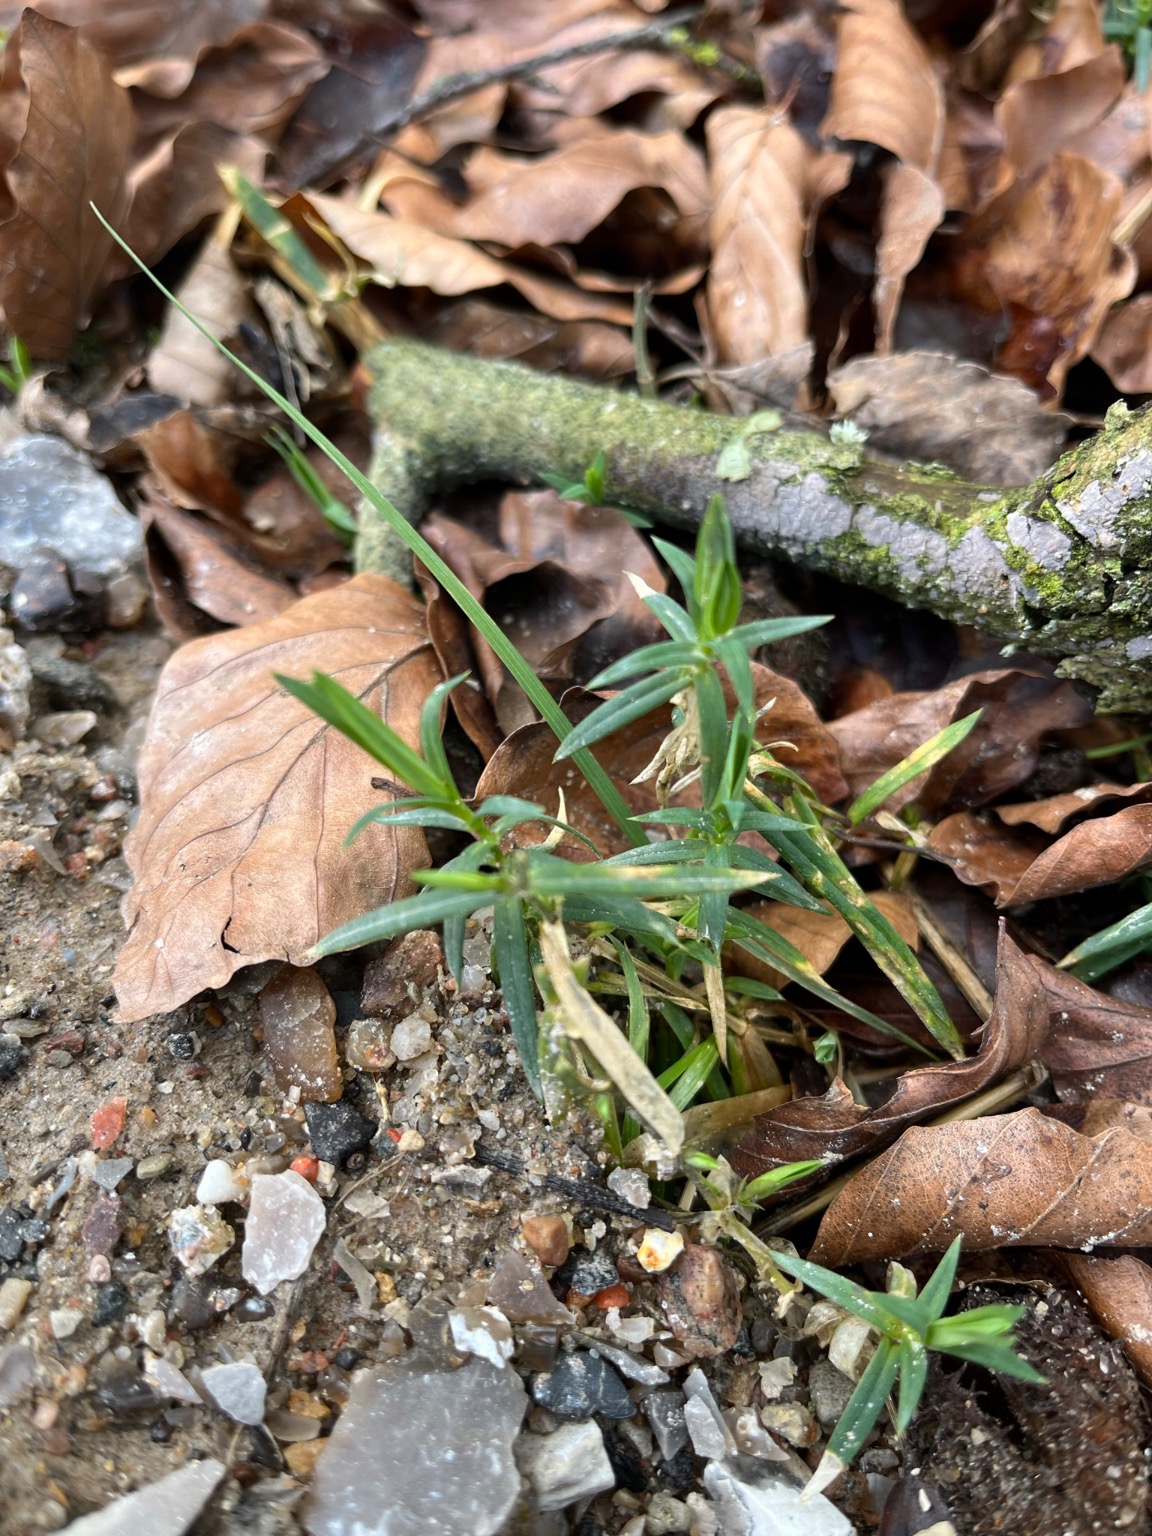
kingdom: Plantae
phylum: Tracheophyta
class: Magnoliopsida
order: Caryophyllales
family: Caryophyllaceae
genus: Rabelera
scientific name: Rabelera holostea
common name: Stor fladstjerne
